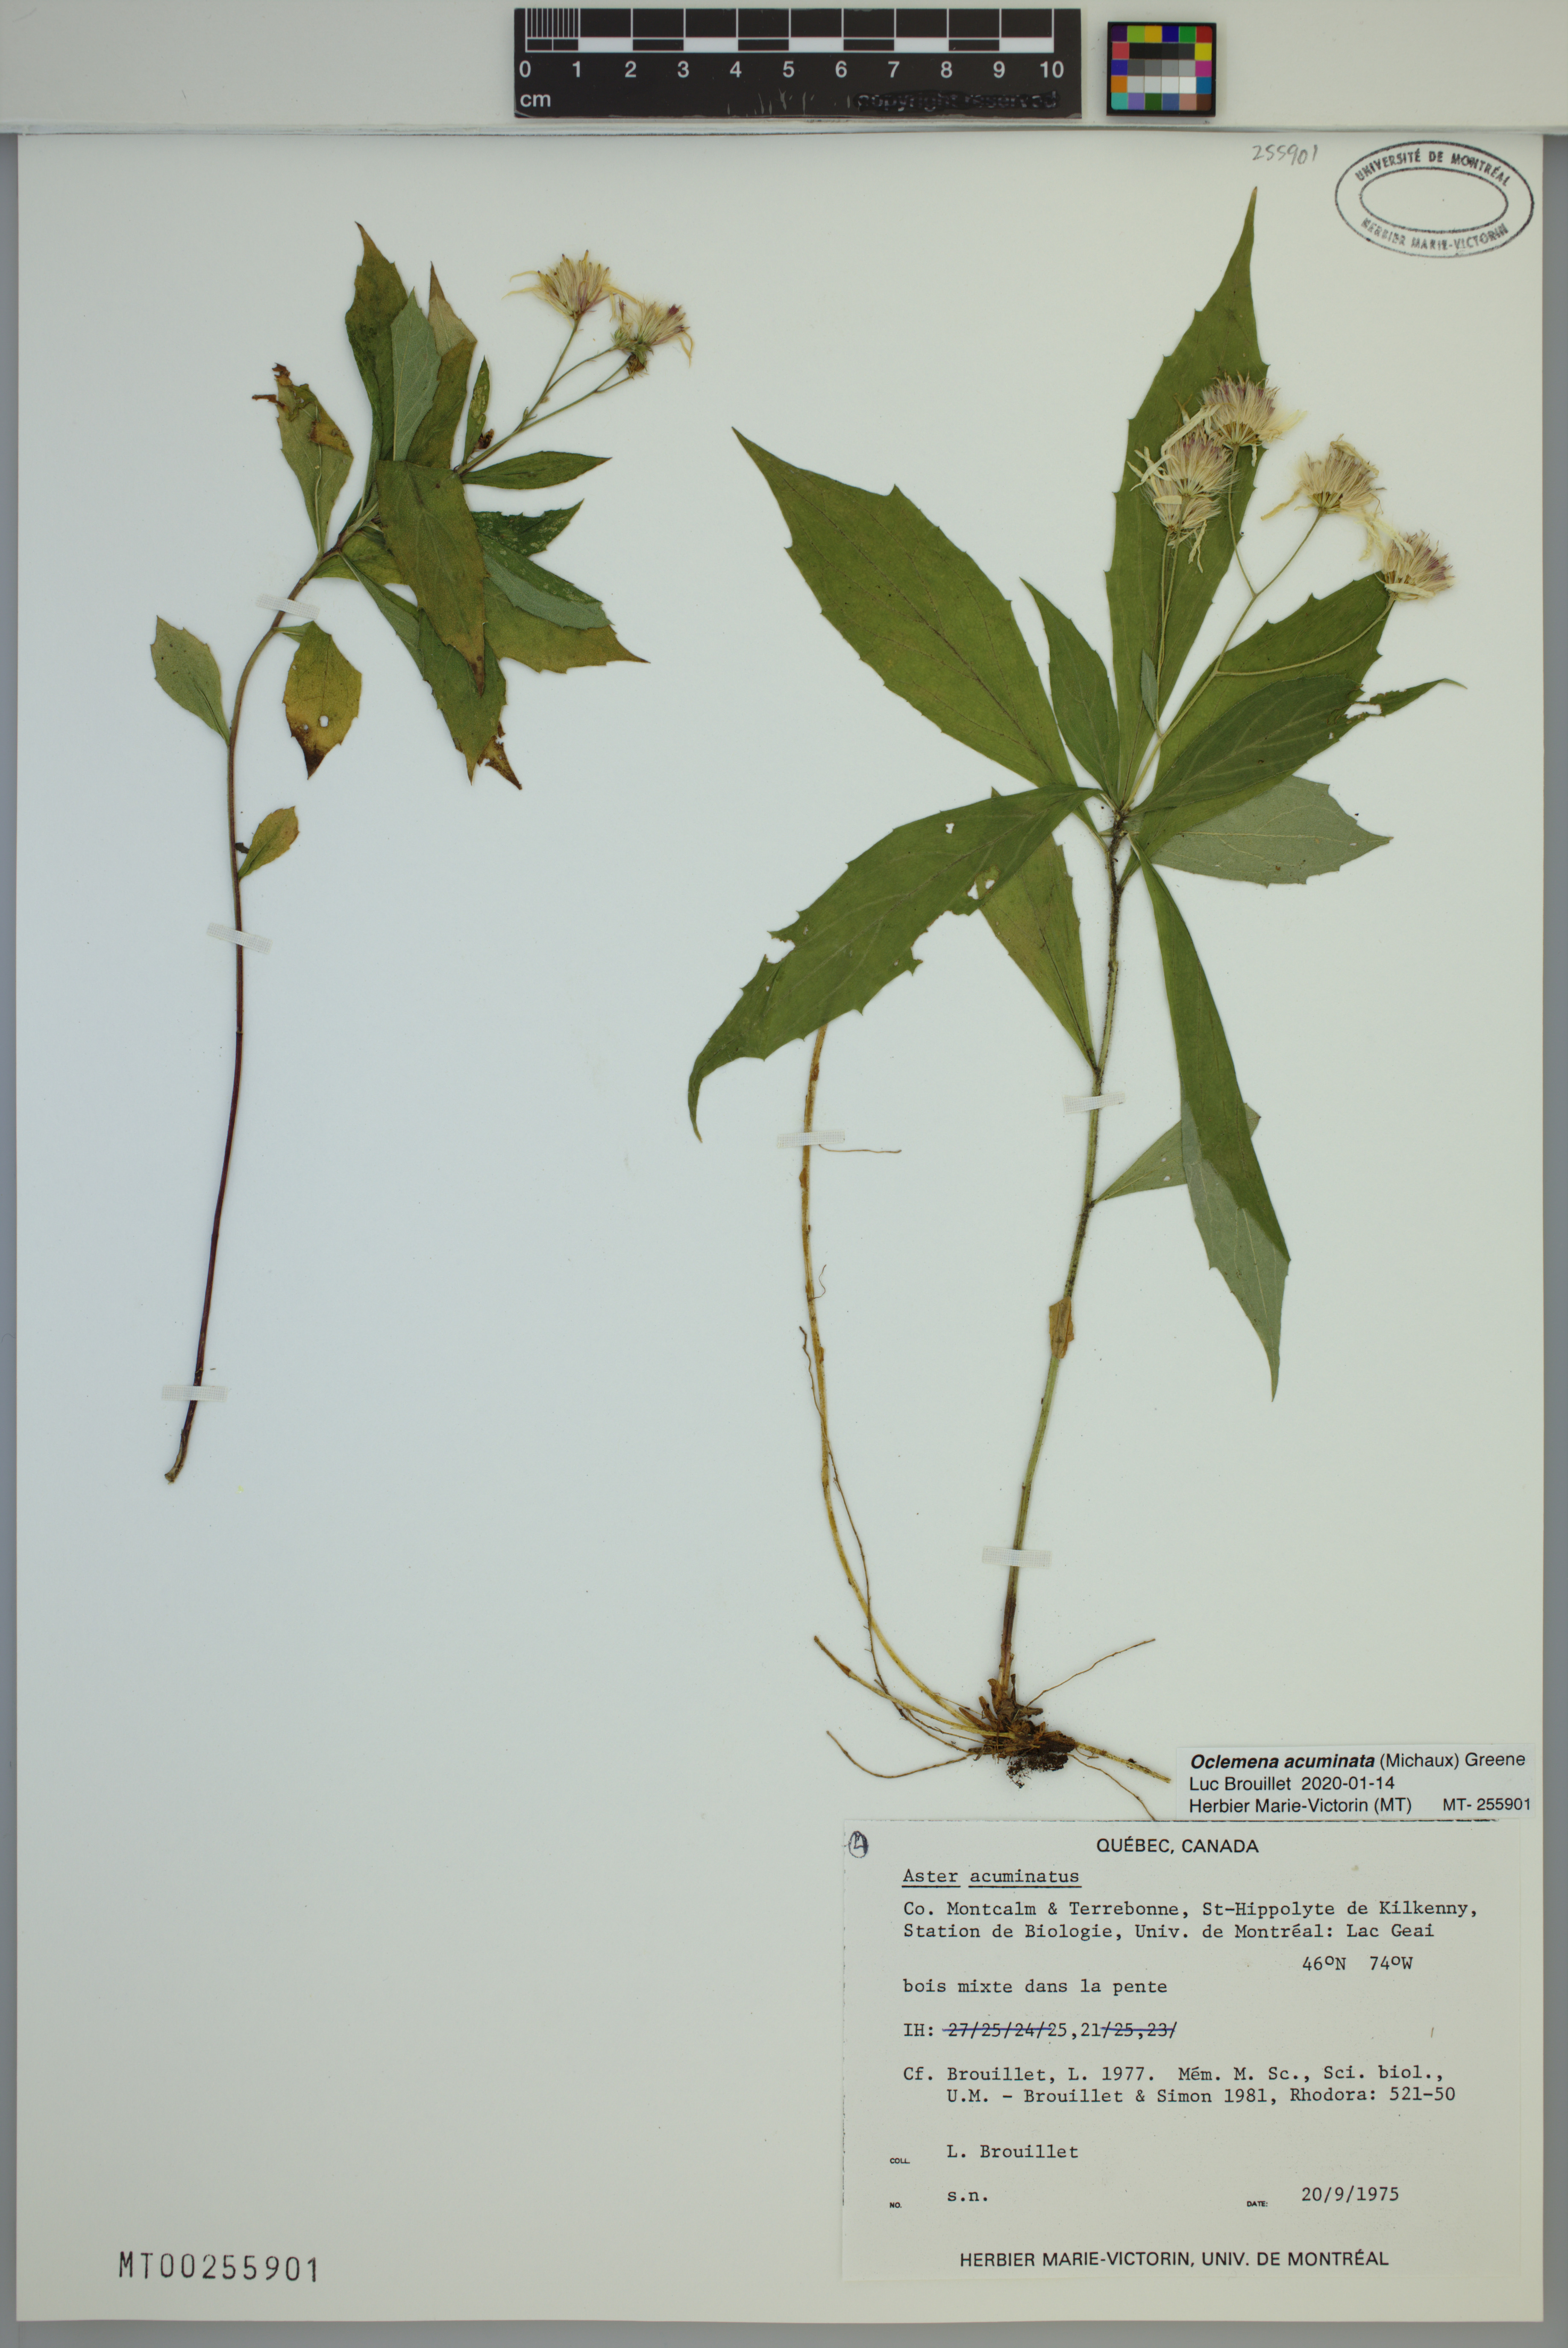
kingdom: Plantae
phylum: Tracheophyta
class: Magnoliopsida
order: Asterales
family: Asteraceae
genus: Oclemena
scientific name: Oclemena acuminata
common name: Mountain aster
